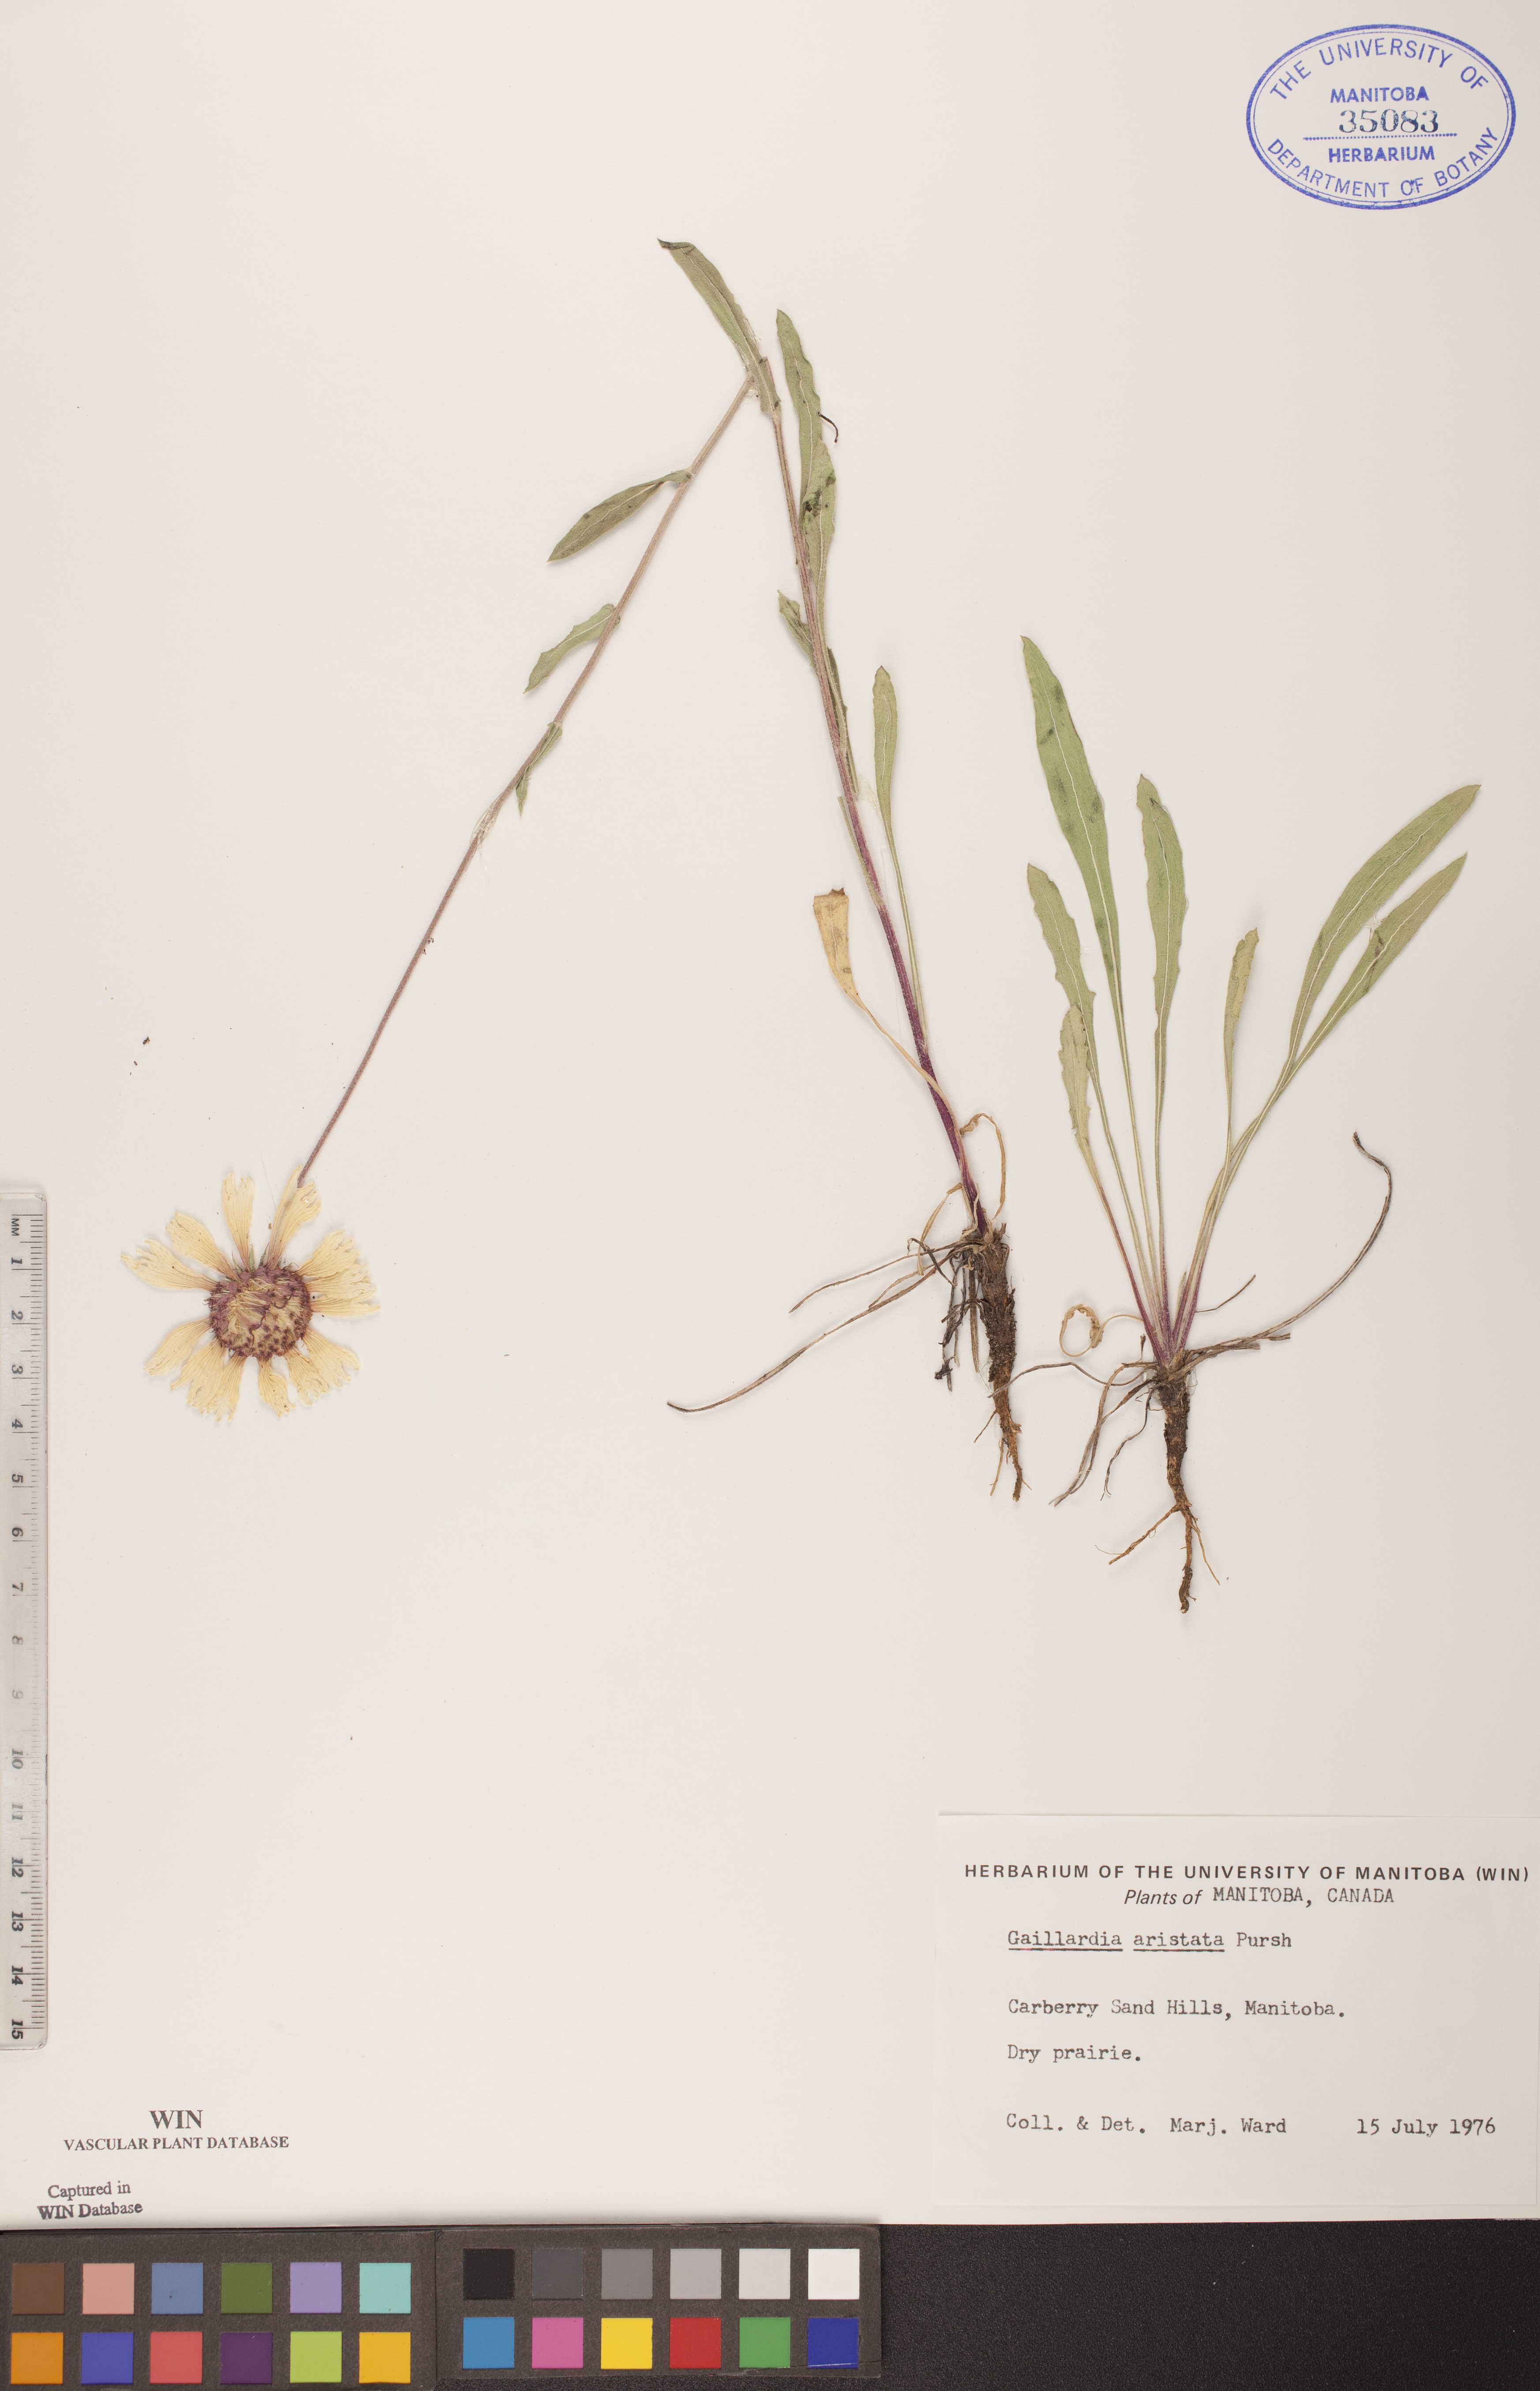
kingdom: Plantae
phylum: Tracheophyta
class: Magnoliopsida
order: Asterales
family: Asteraceae
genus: Gaillardia
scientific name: Gaillardia aristata
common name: Blanket-flower
